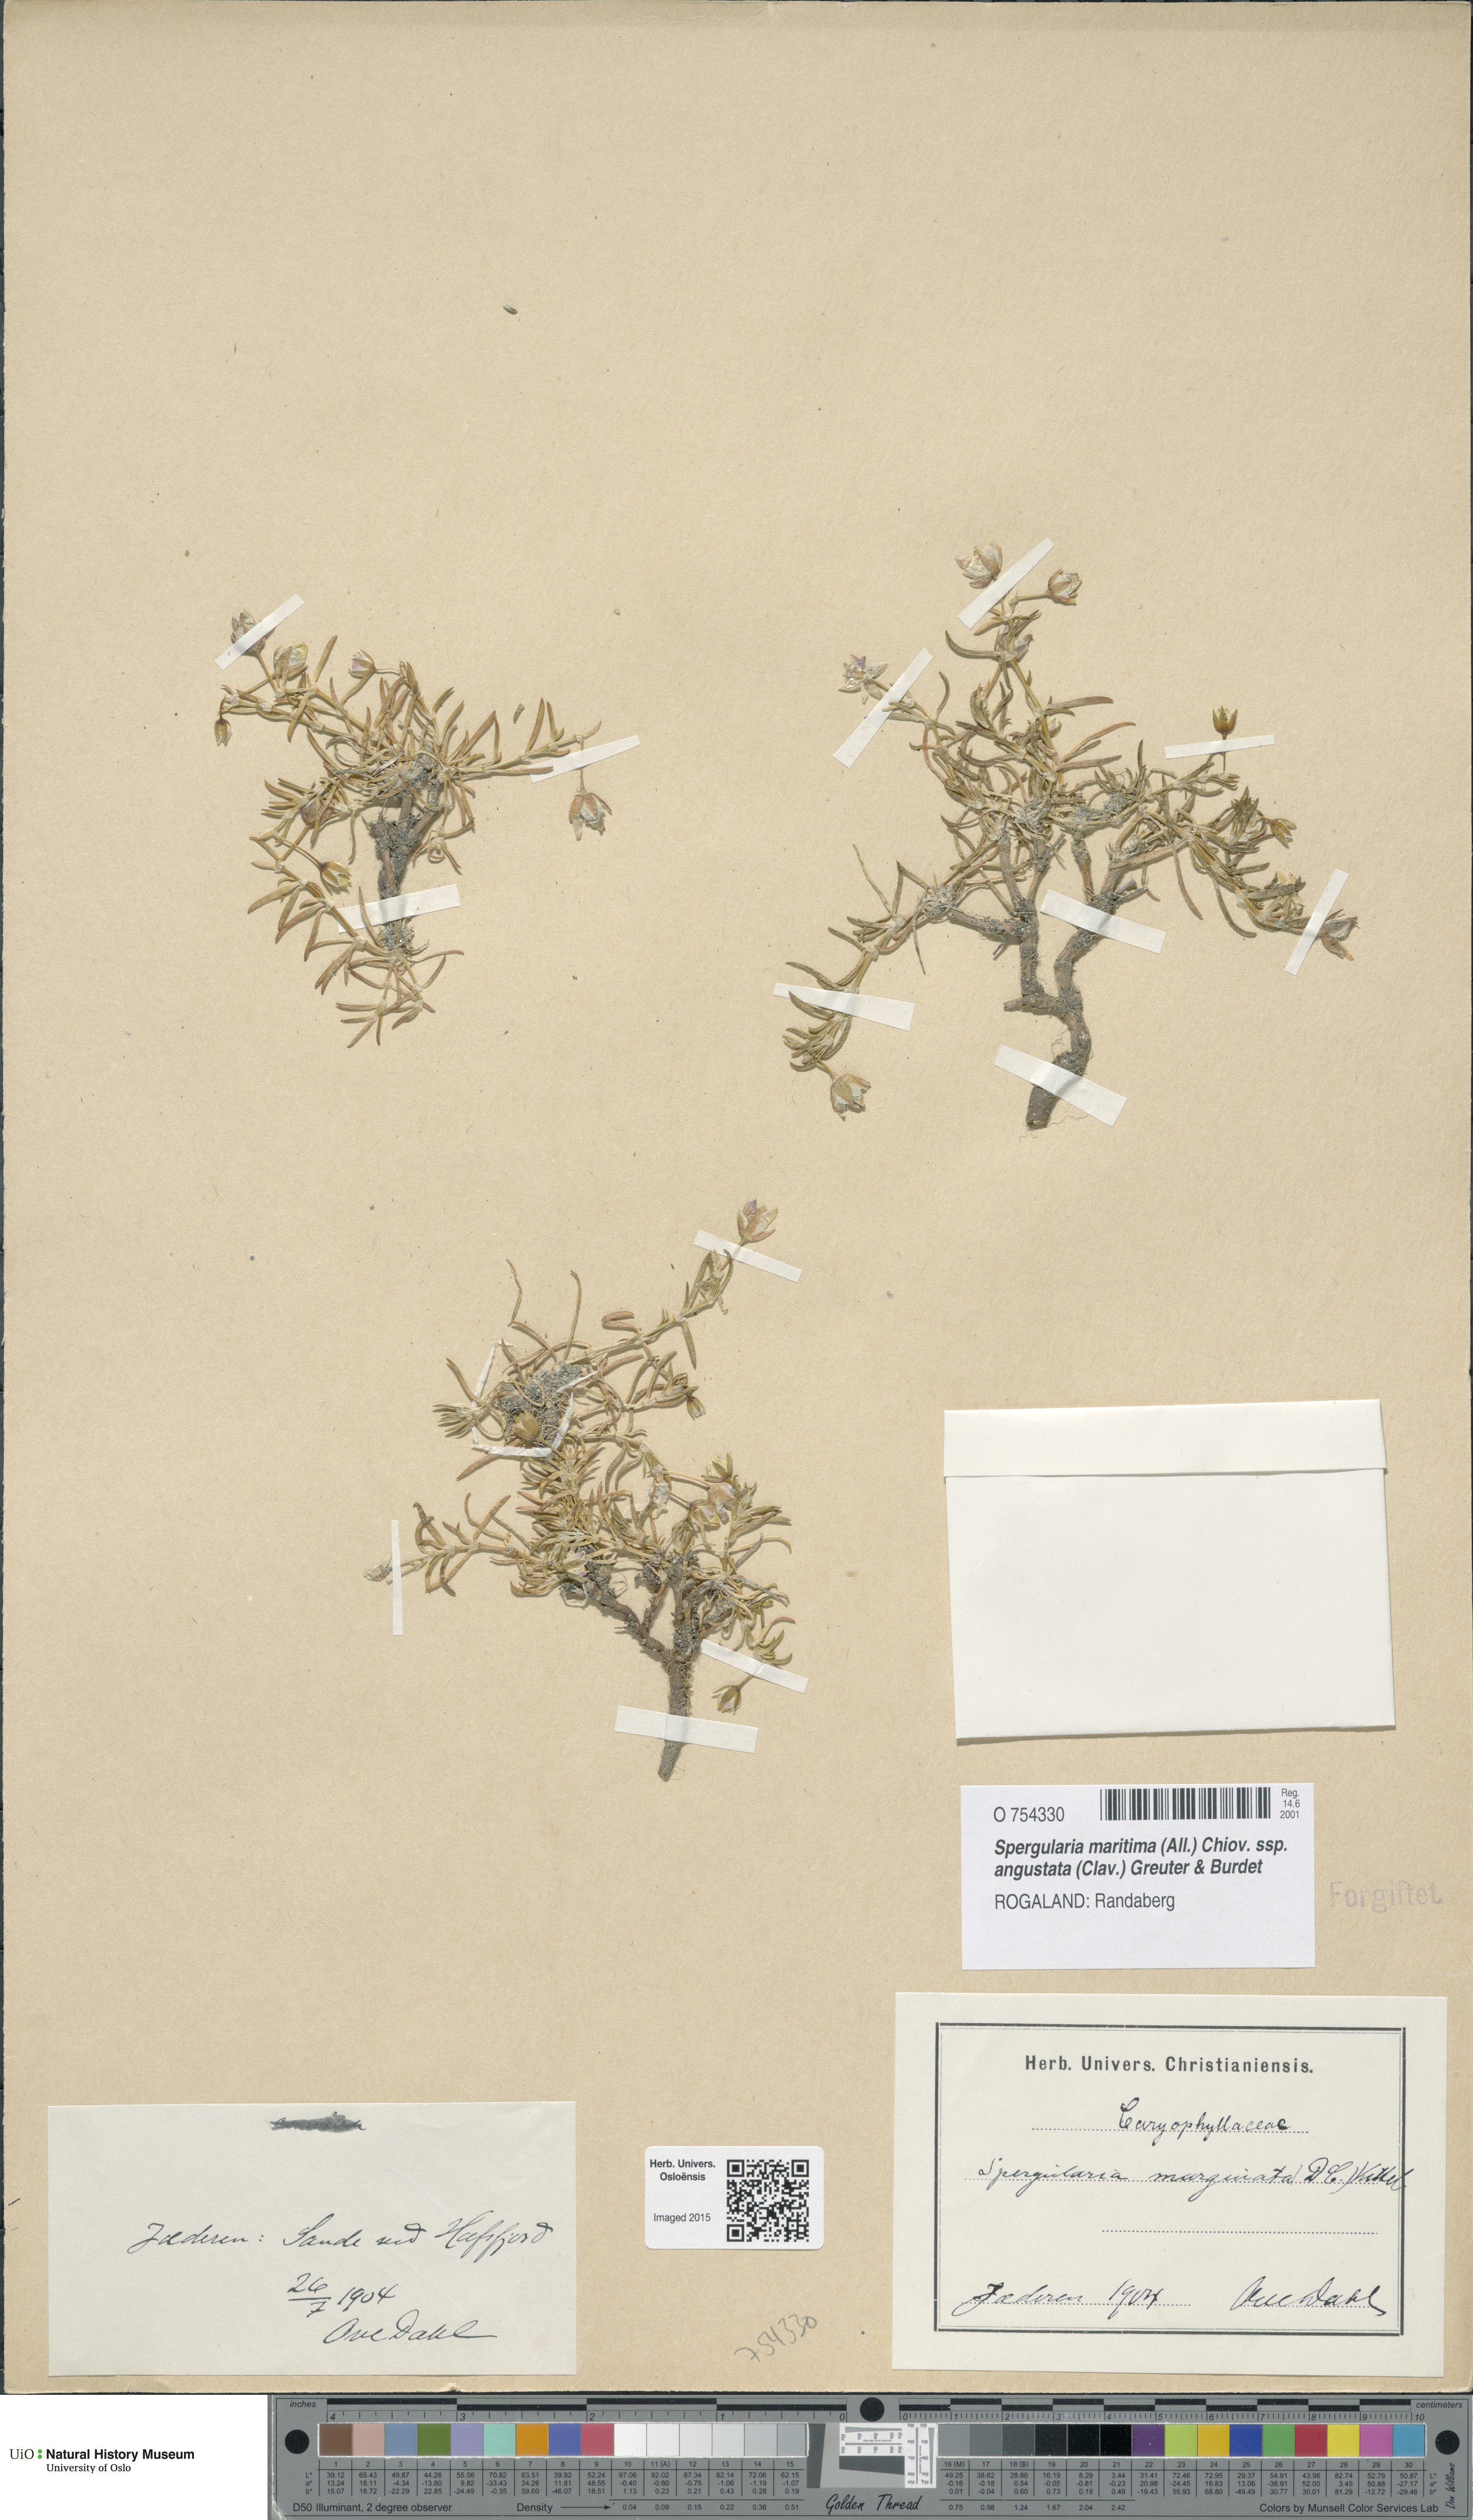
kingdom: Plantae
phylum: Tracheophyta
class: Magnoliopsida
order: Caryophyllales
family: Caryophyllaceae
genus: Spergularia
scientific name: Spergularia media
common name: Greater sea-spurrey
